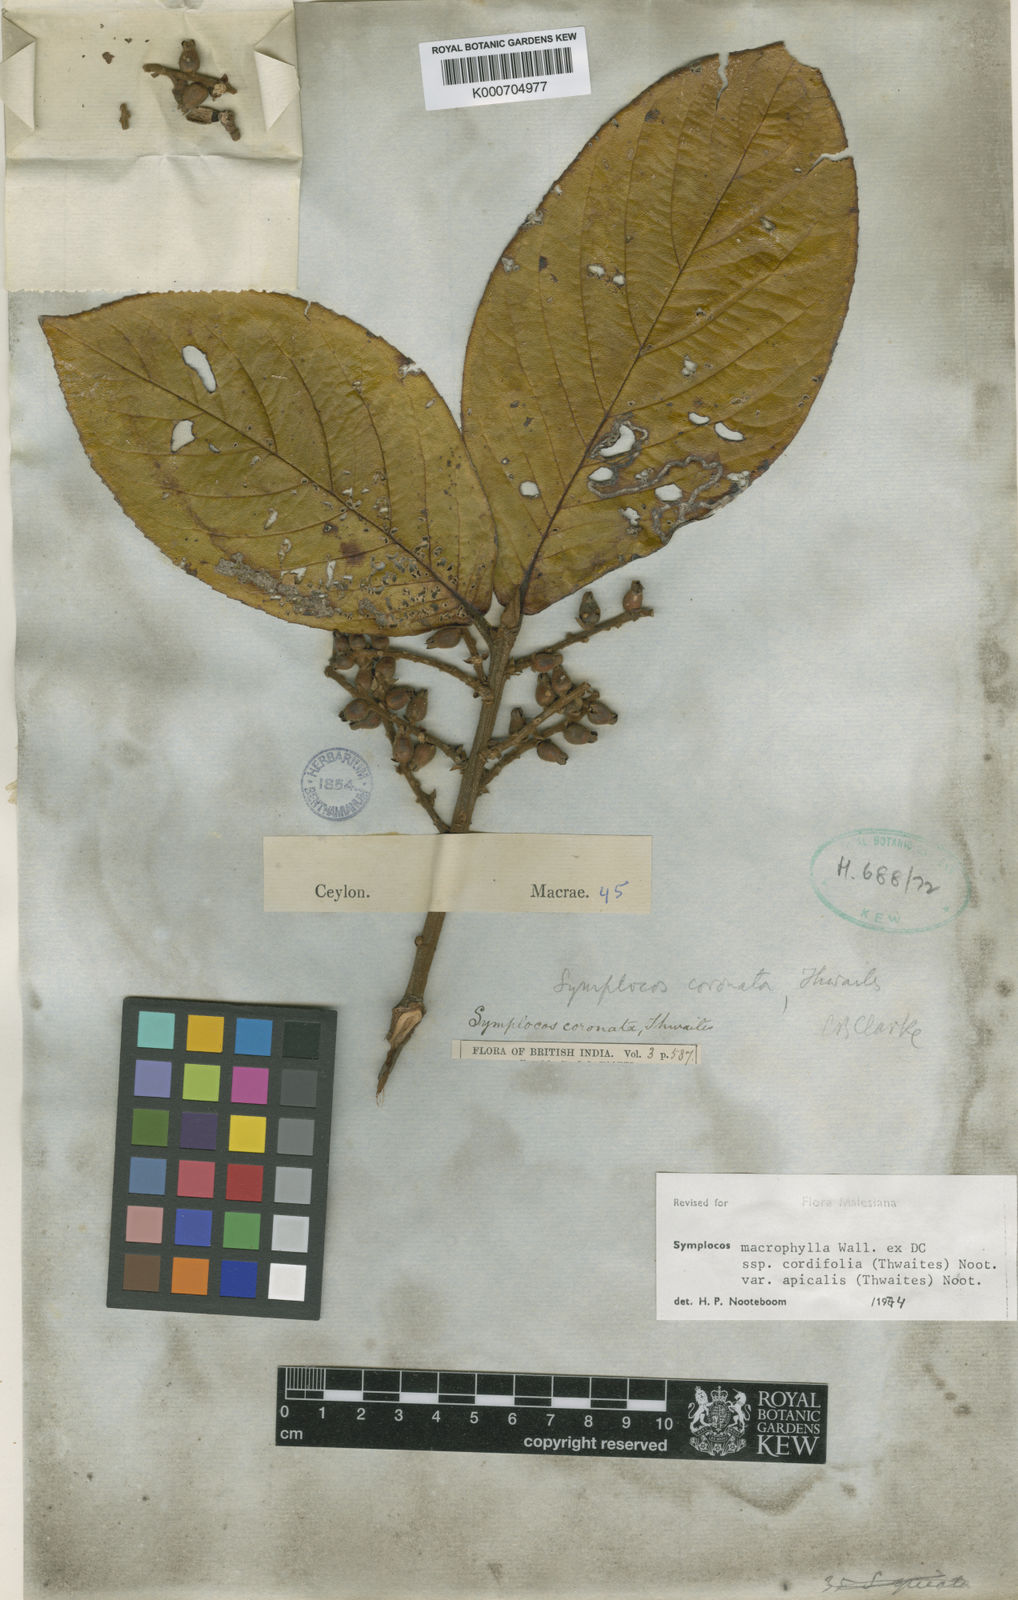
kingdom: Plantae
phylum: Tracheophyta
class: Magnoliopsida
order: Ericales
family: Symplocaceae
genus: Symplocos
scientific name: Symplocos
